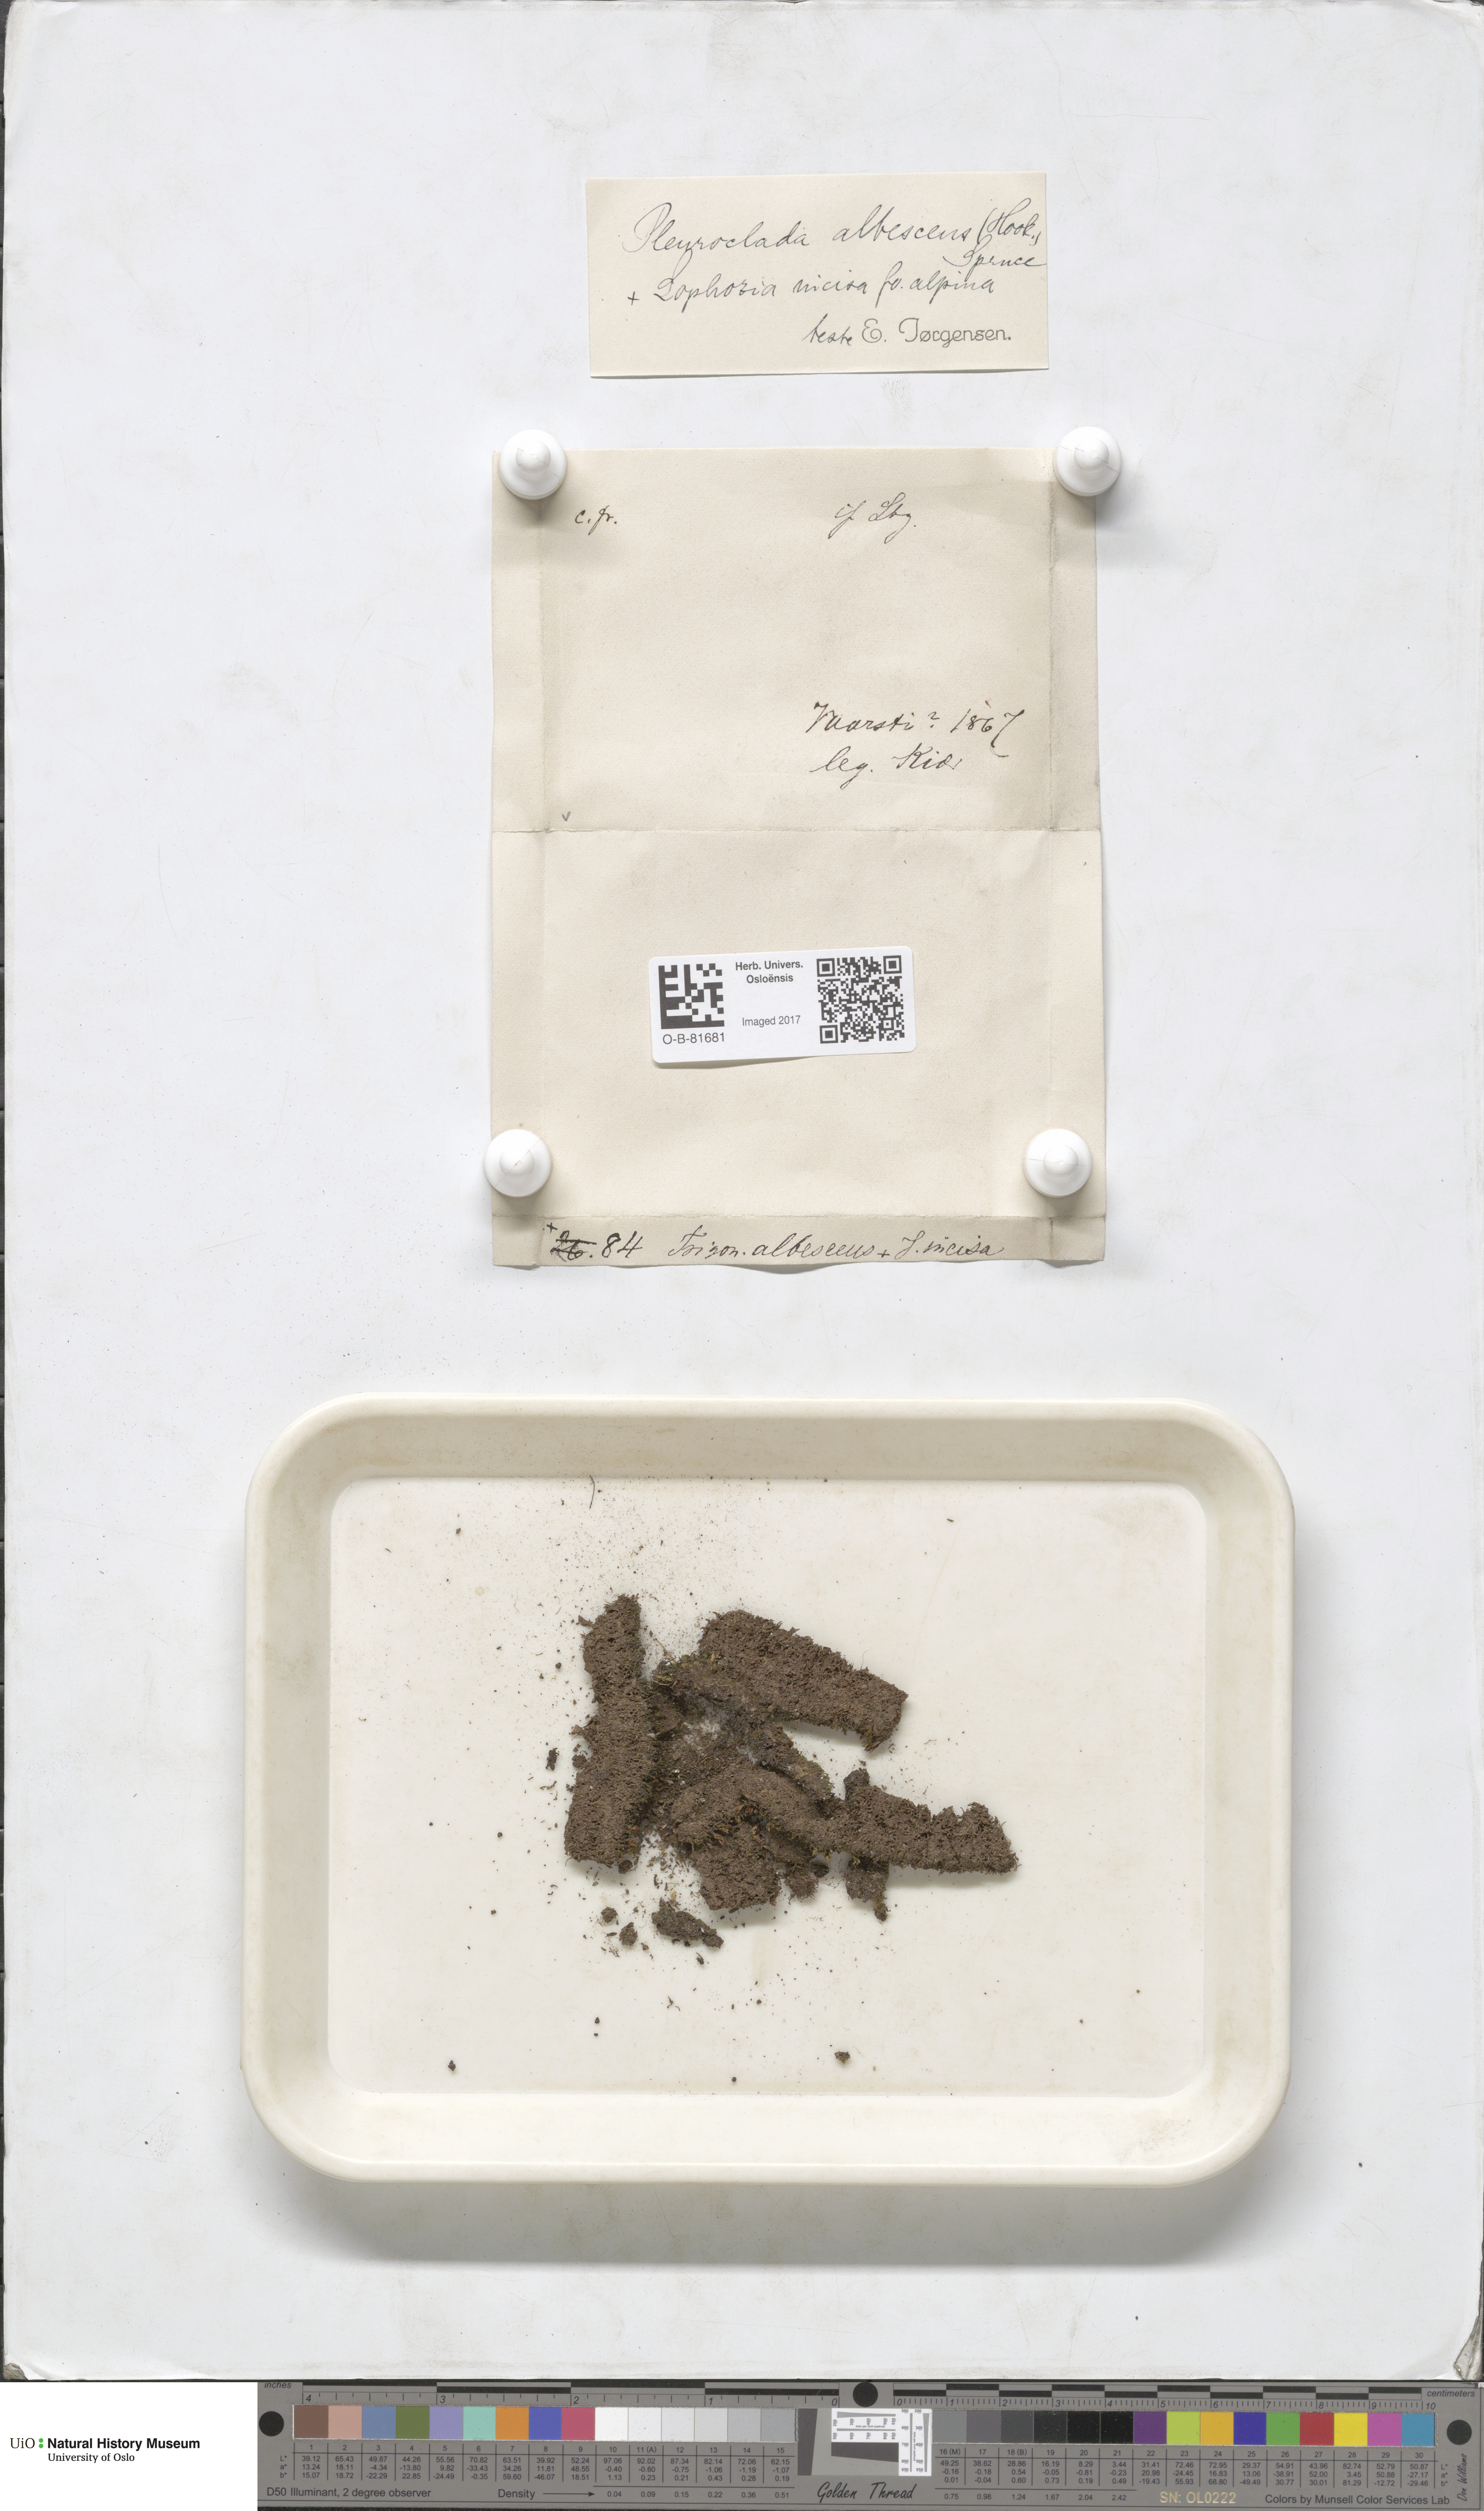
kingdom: Plantae
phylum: Marchantiophyta
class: Jungermanniopsida
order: Jungermanniales
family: Cephaloziaceae
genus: Fuscocephaloziopsis
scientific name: Fuscocephaloziopsis albescens
